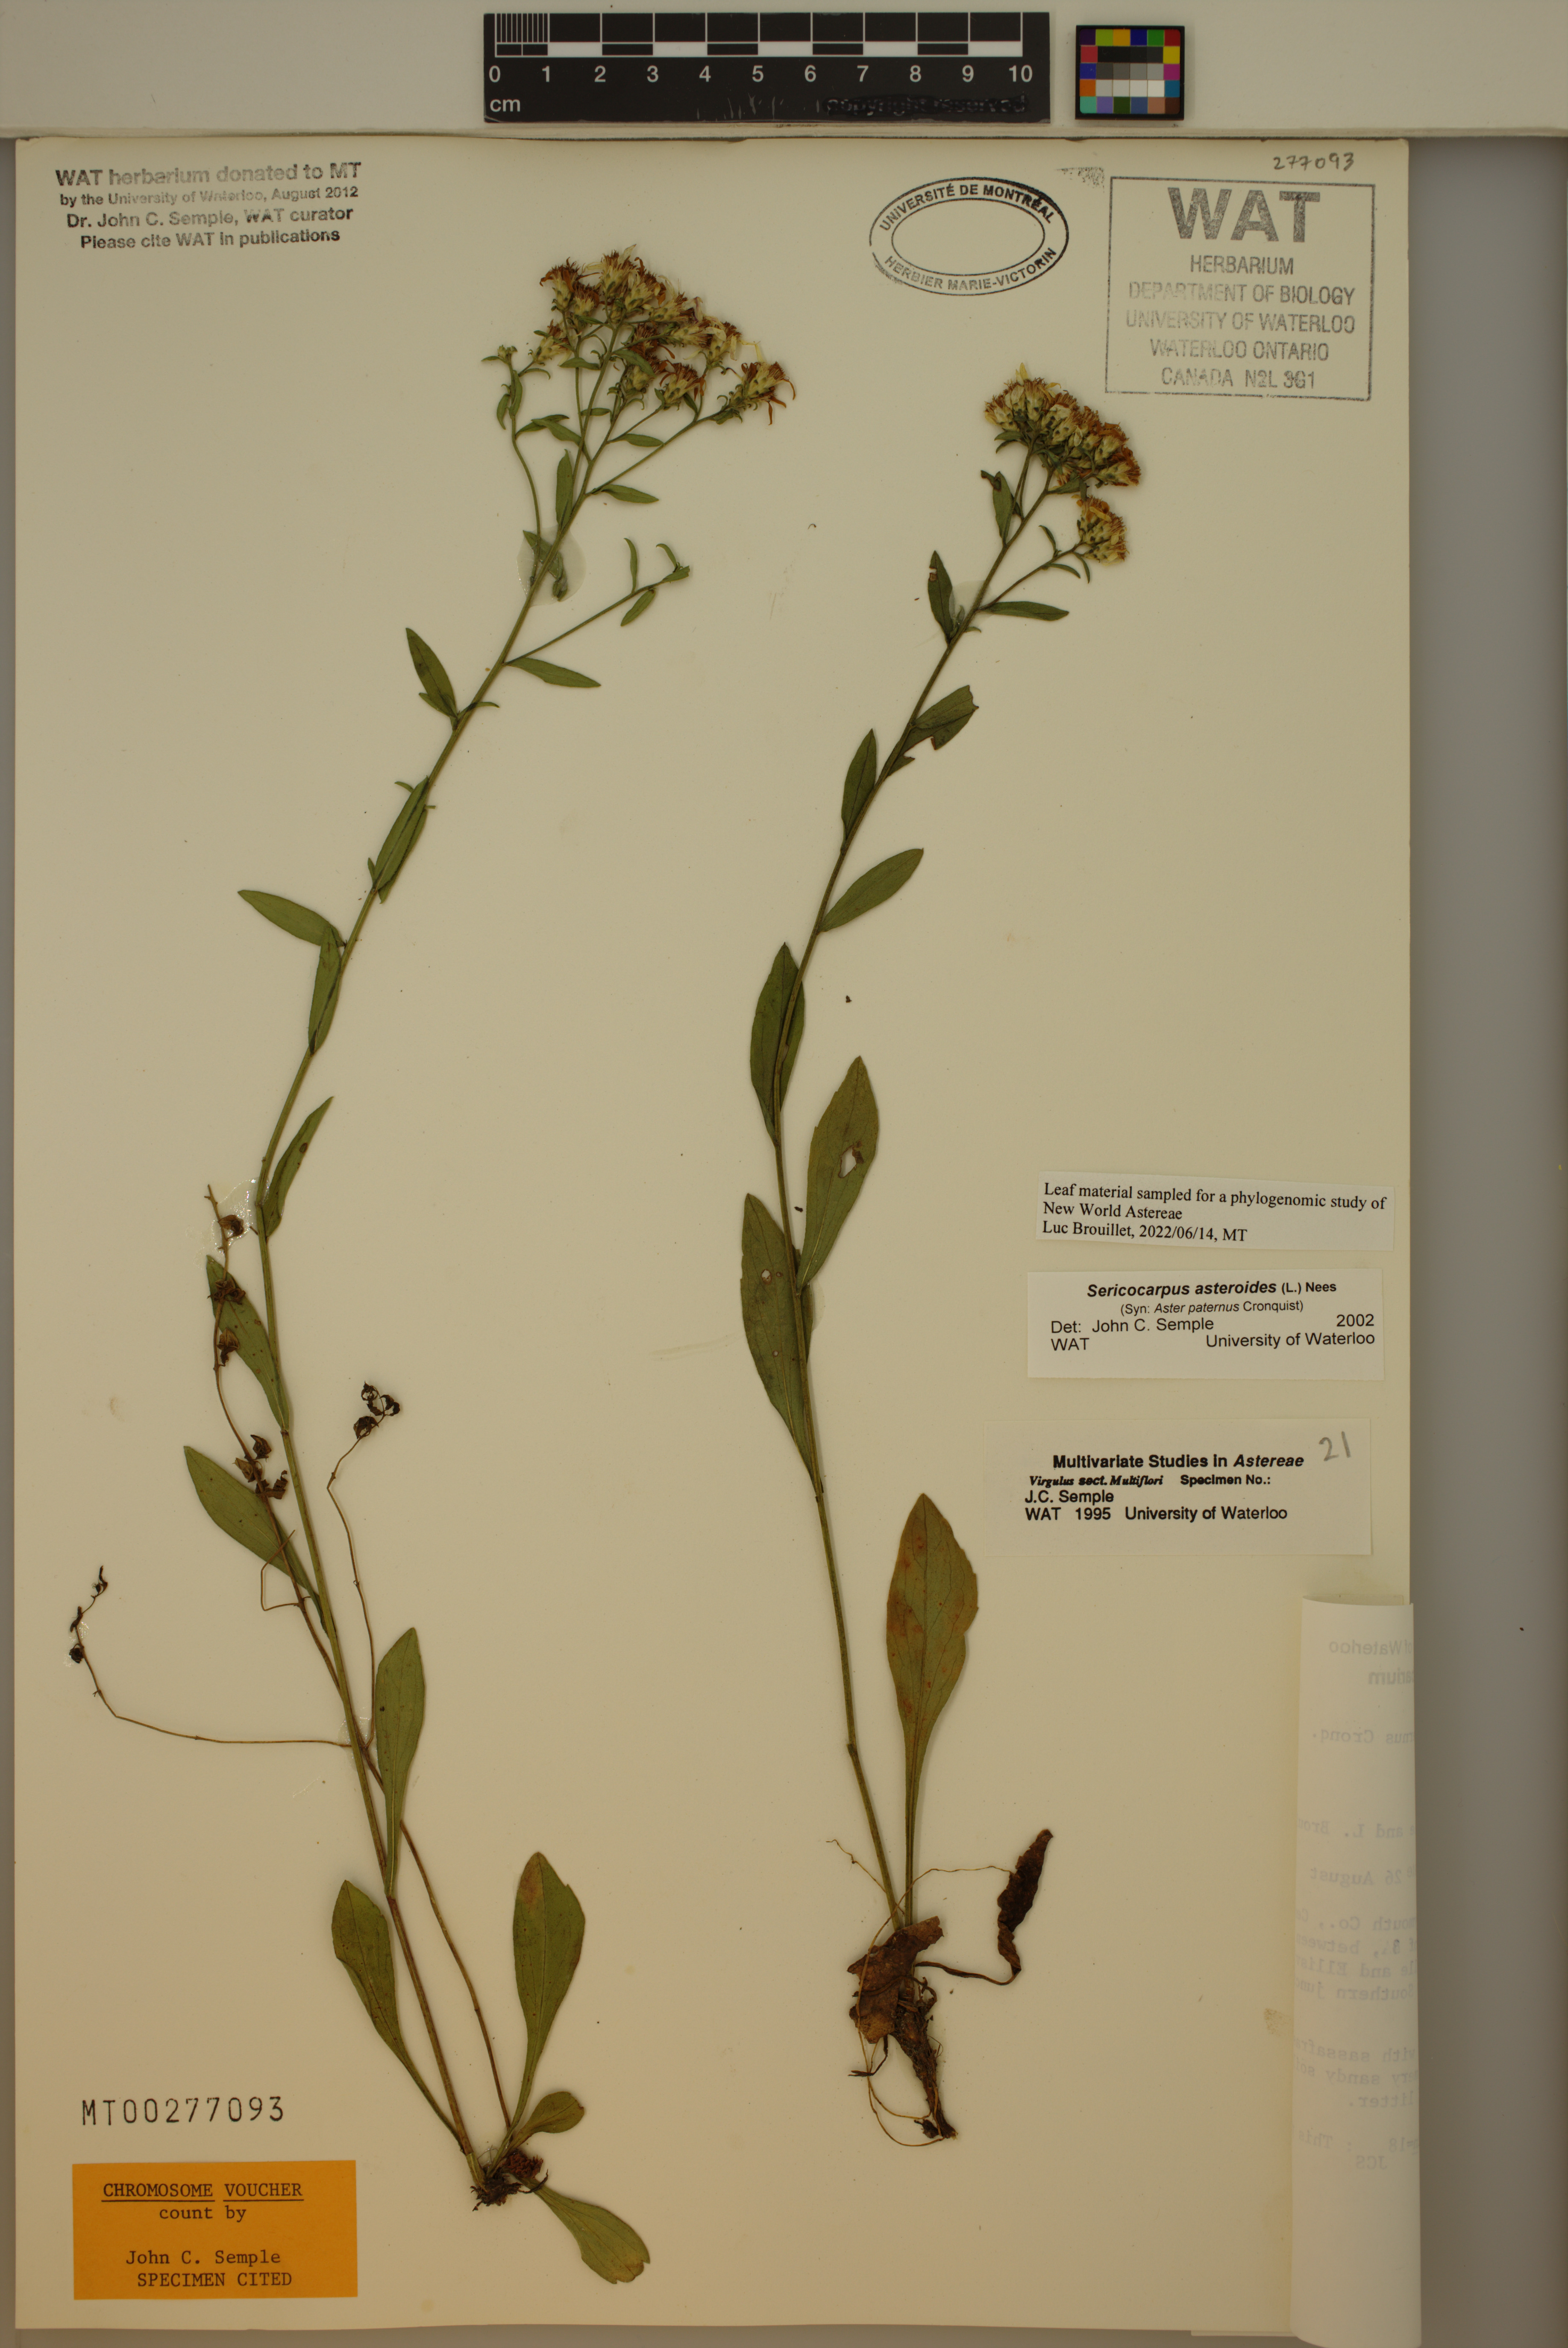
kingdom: Plantae
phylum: Tracheophyta
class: Magnoliopsida
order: Asterales
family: Asteraceae
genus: Sericocarpus
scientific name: Sericocarpus asteroides
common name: Toothed white-top aster
